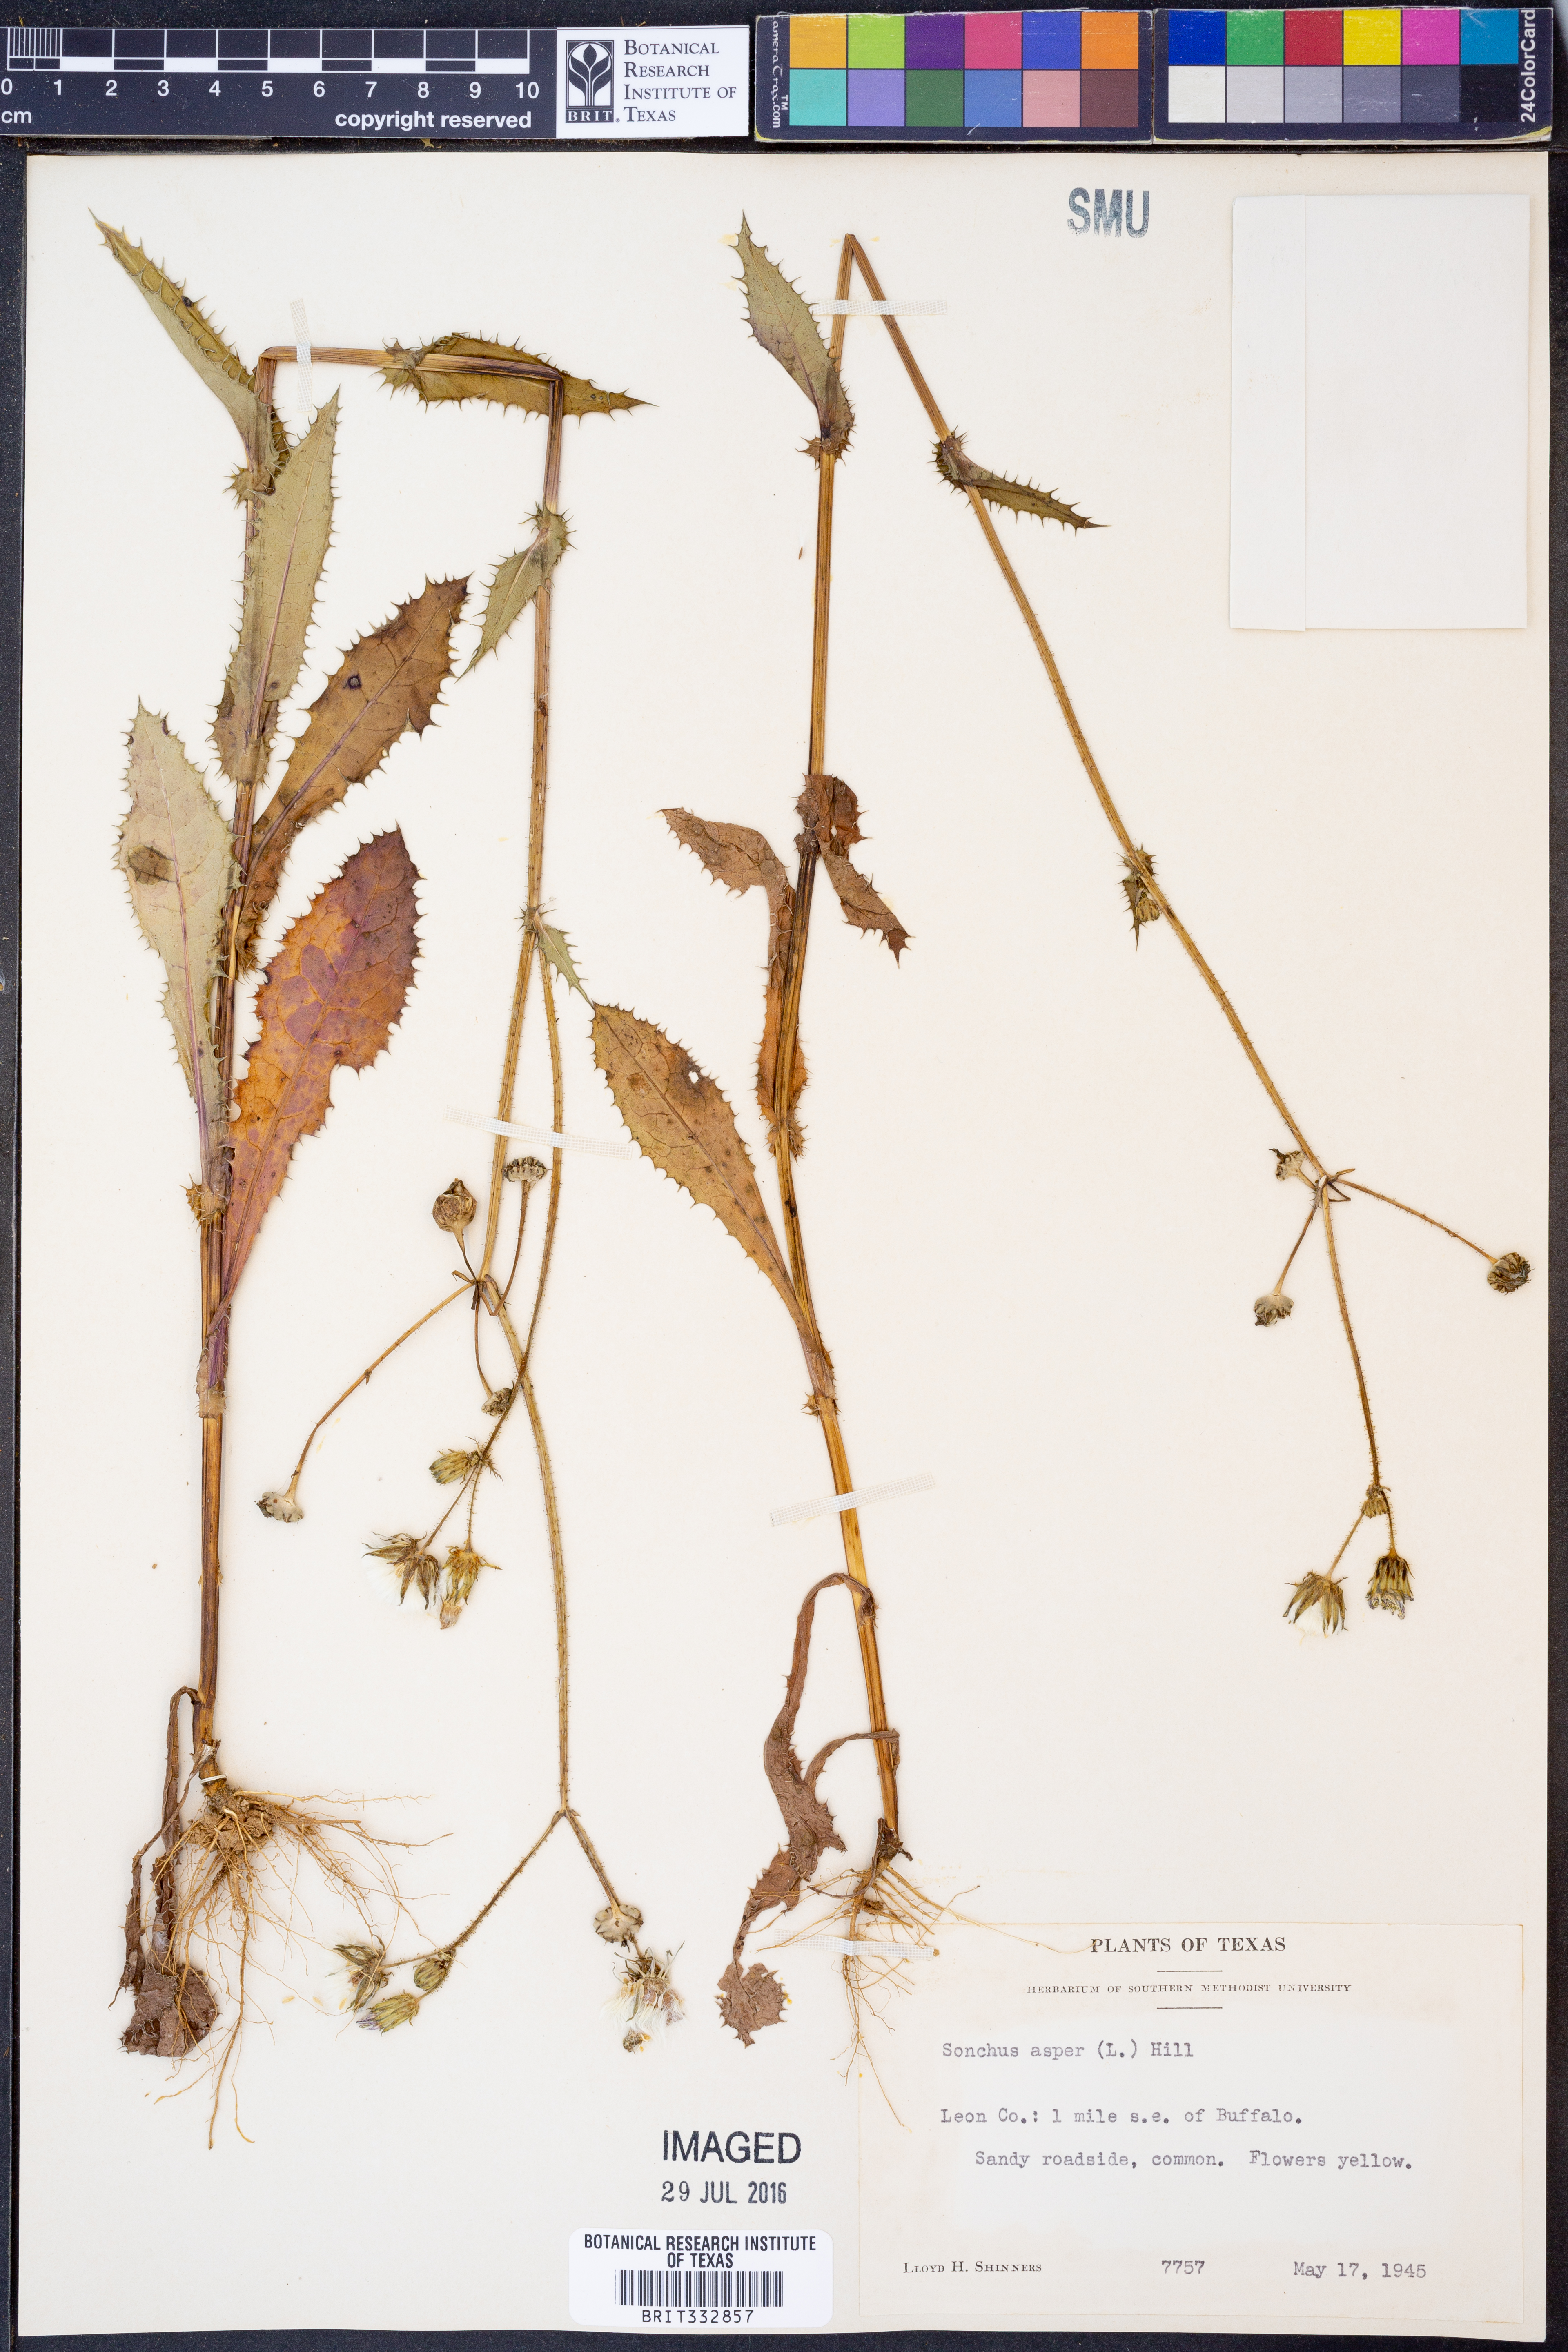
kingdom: Plantae
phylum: Tracheophyta
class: Magnoliopsida
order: Asterales
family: Asteraceae
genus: Sonchus
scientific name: Sonchus asper
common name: Prickly sow-thistle
